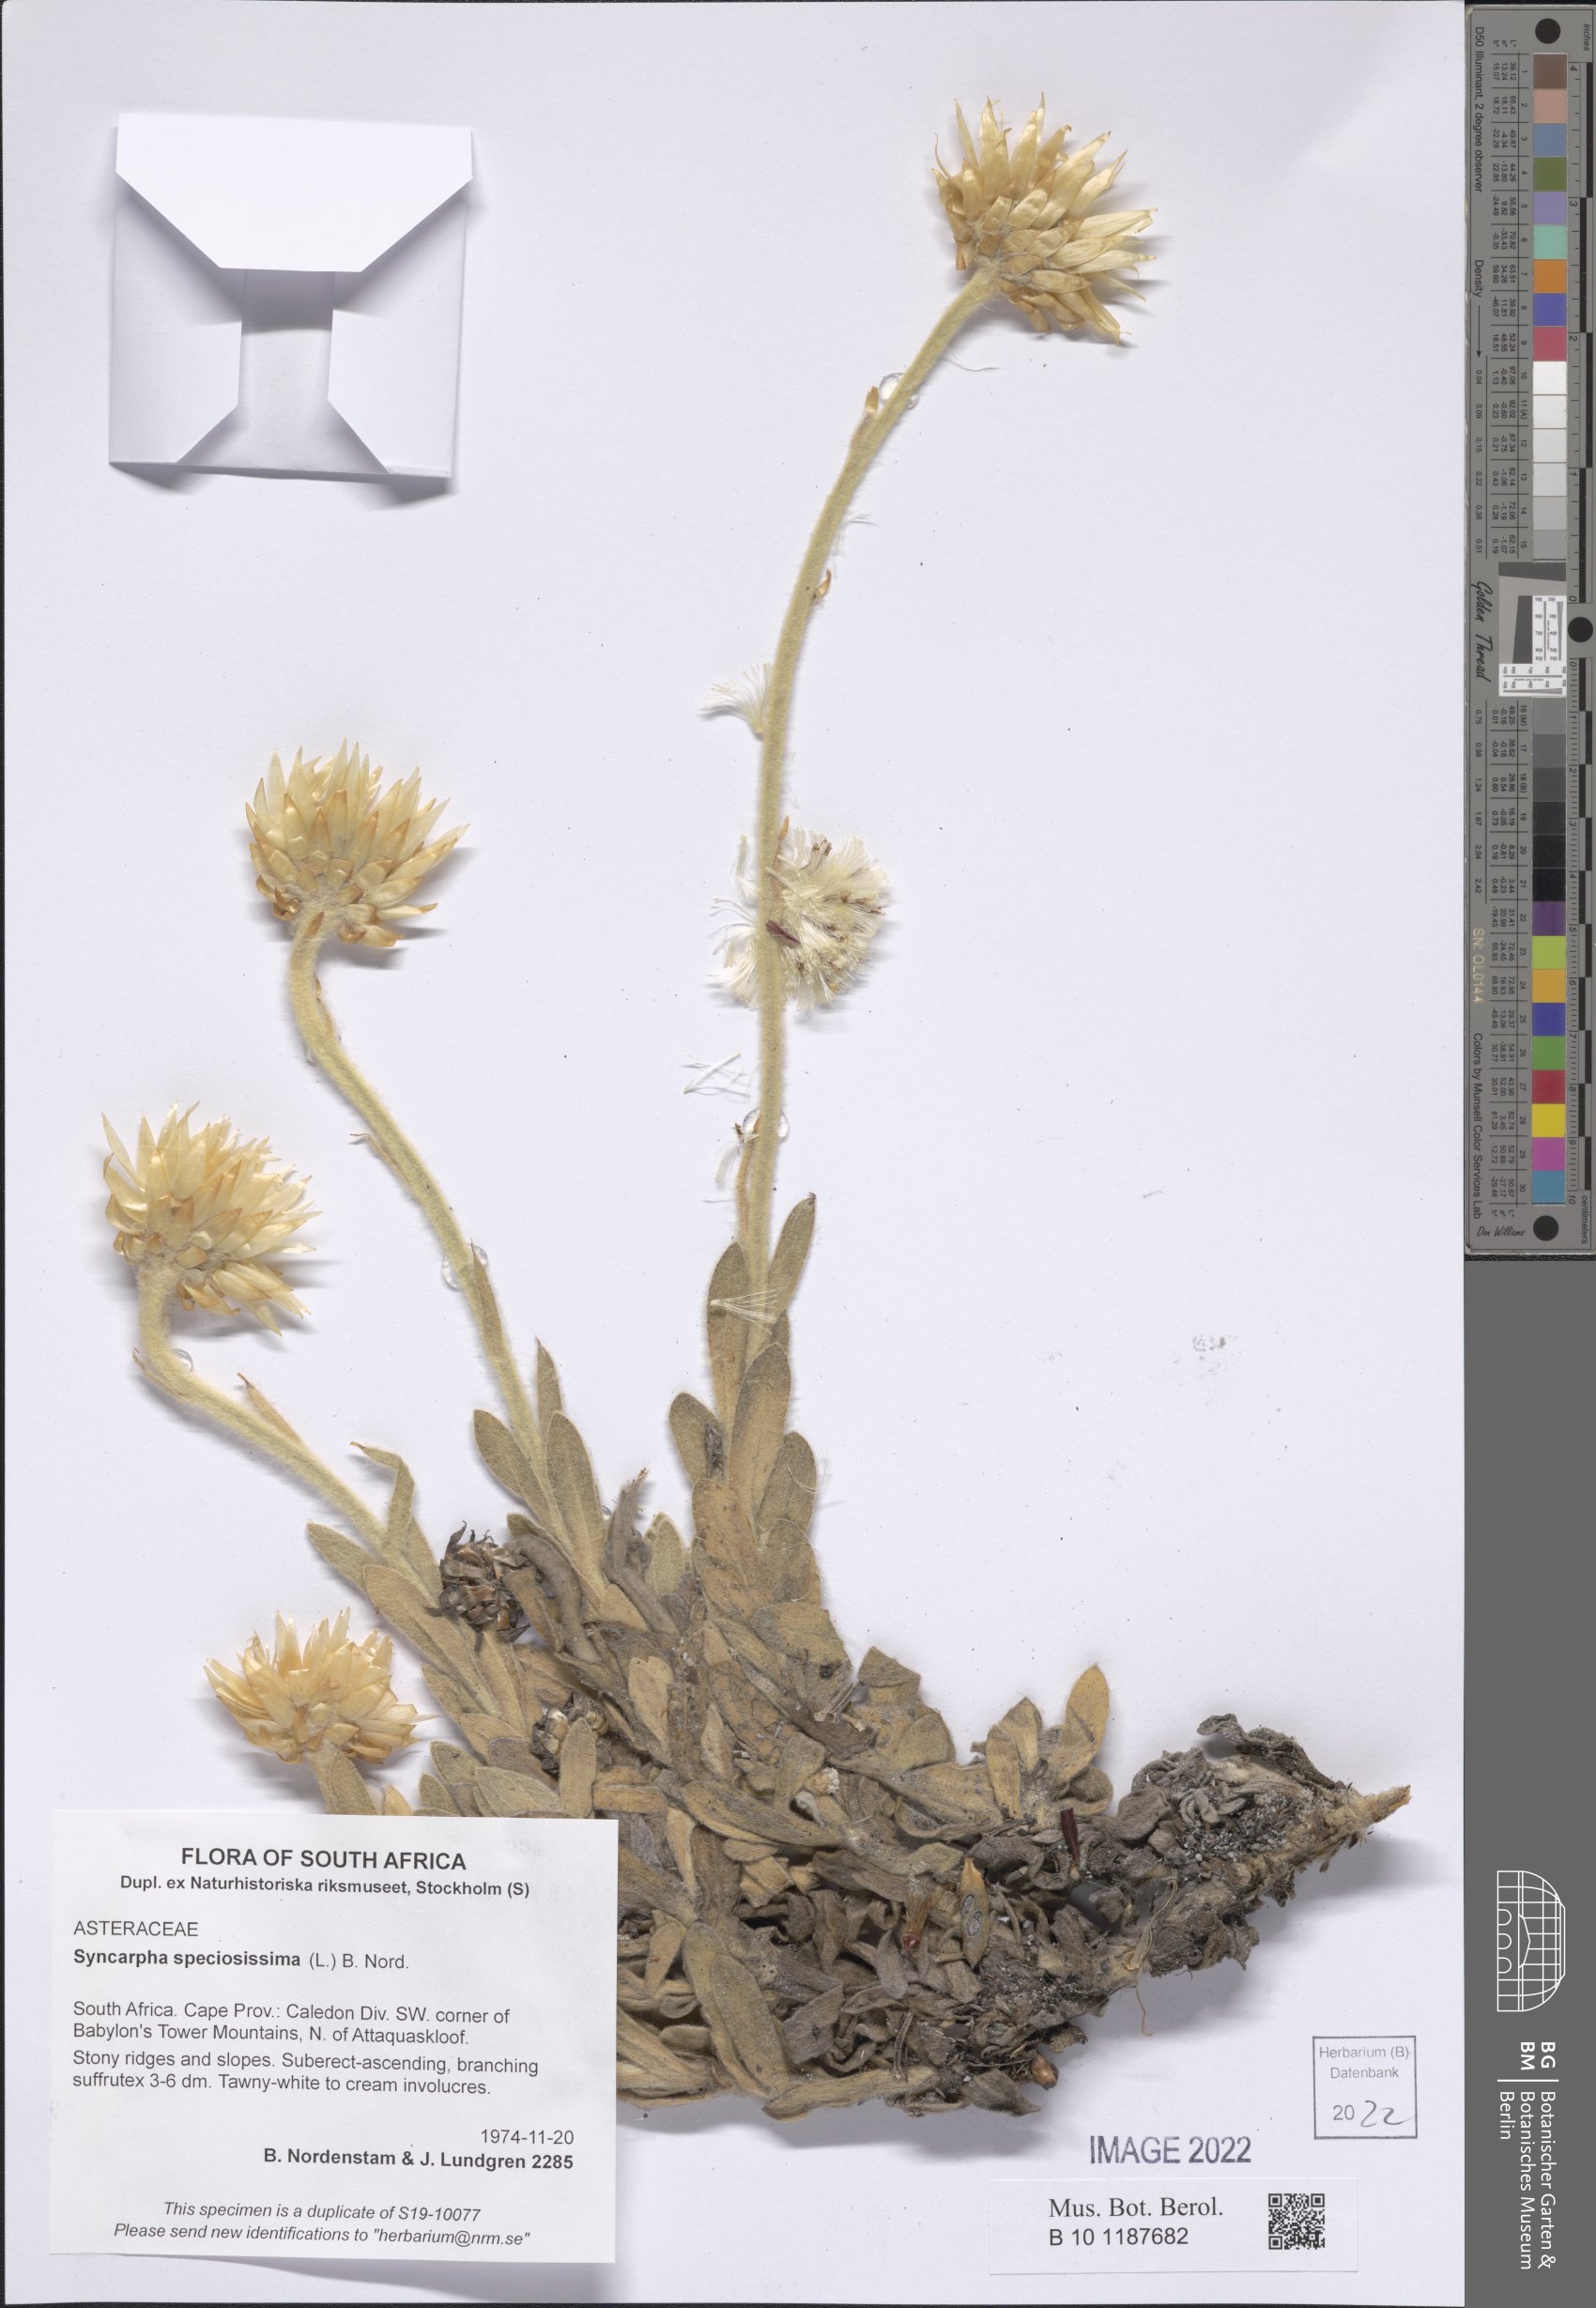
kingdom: Plantae
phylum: Tracheophyta
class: Magnoliopsida
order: Asterales
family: Asteraceae
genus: Syncarpha
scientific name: Syncarpha speciosissima
